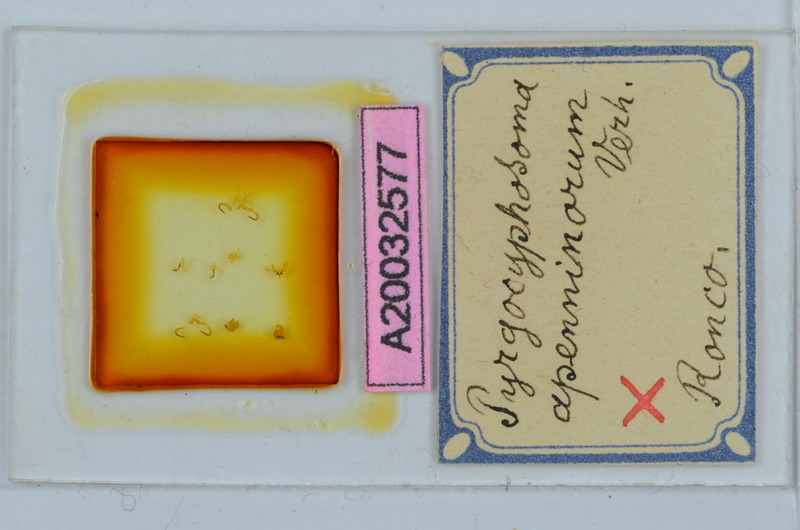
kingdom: Animalia
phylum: Arthropoda
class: Diplopoda
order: Chordeumatida
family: Craspedosomatidae
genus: Pyrgocyphosoma
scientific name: Pyrgocyphosoma ligusticum
